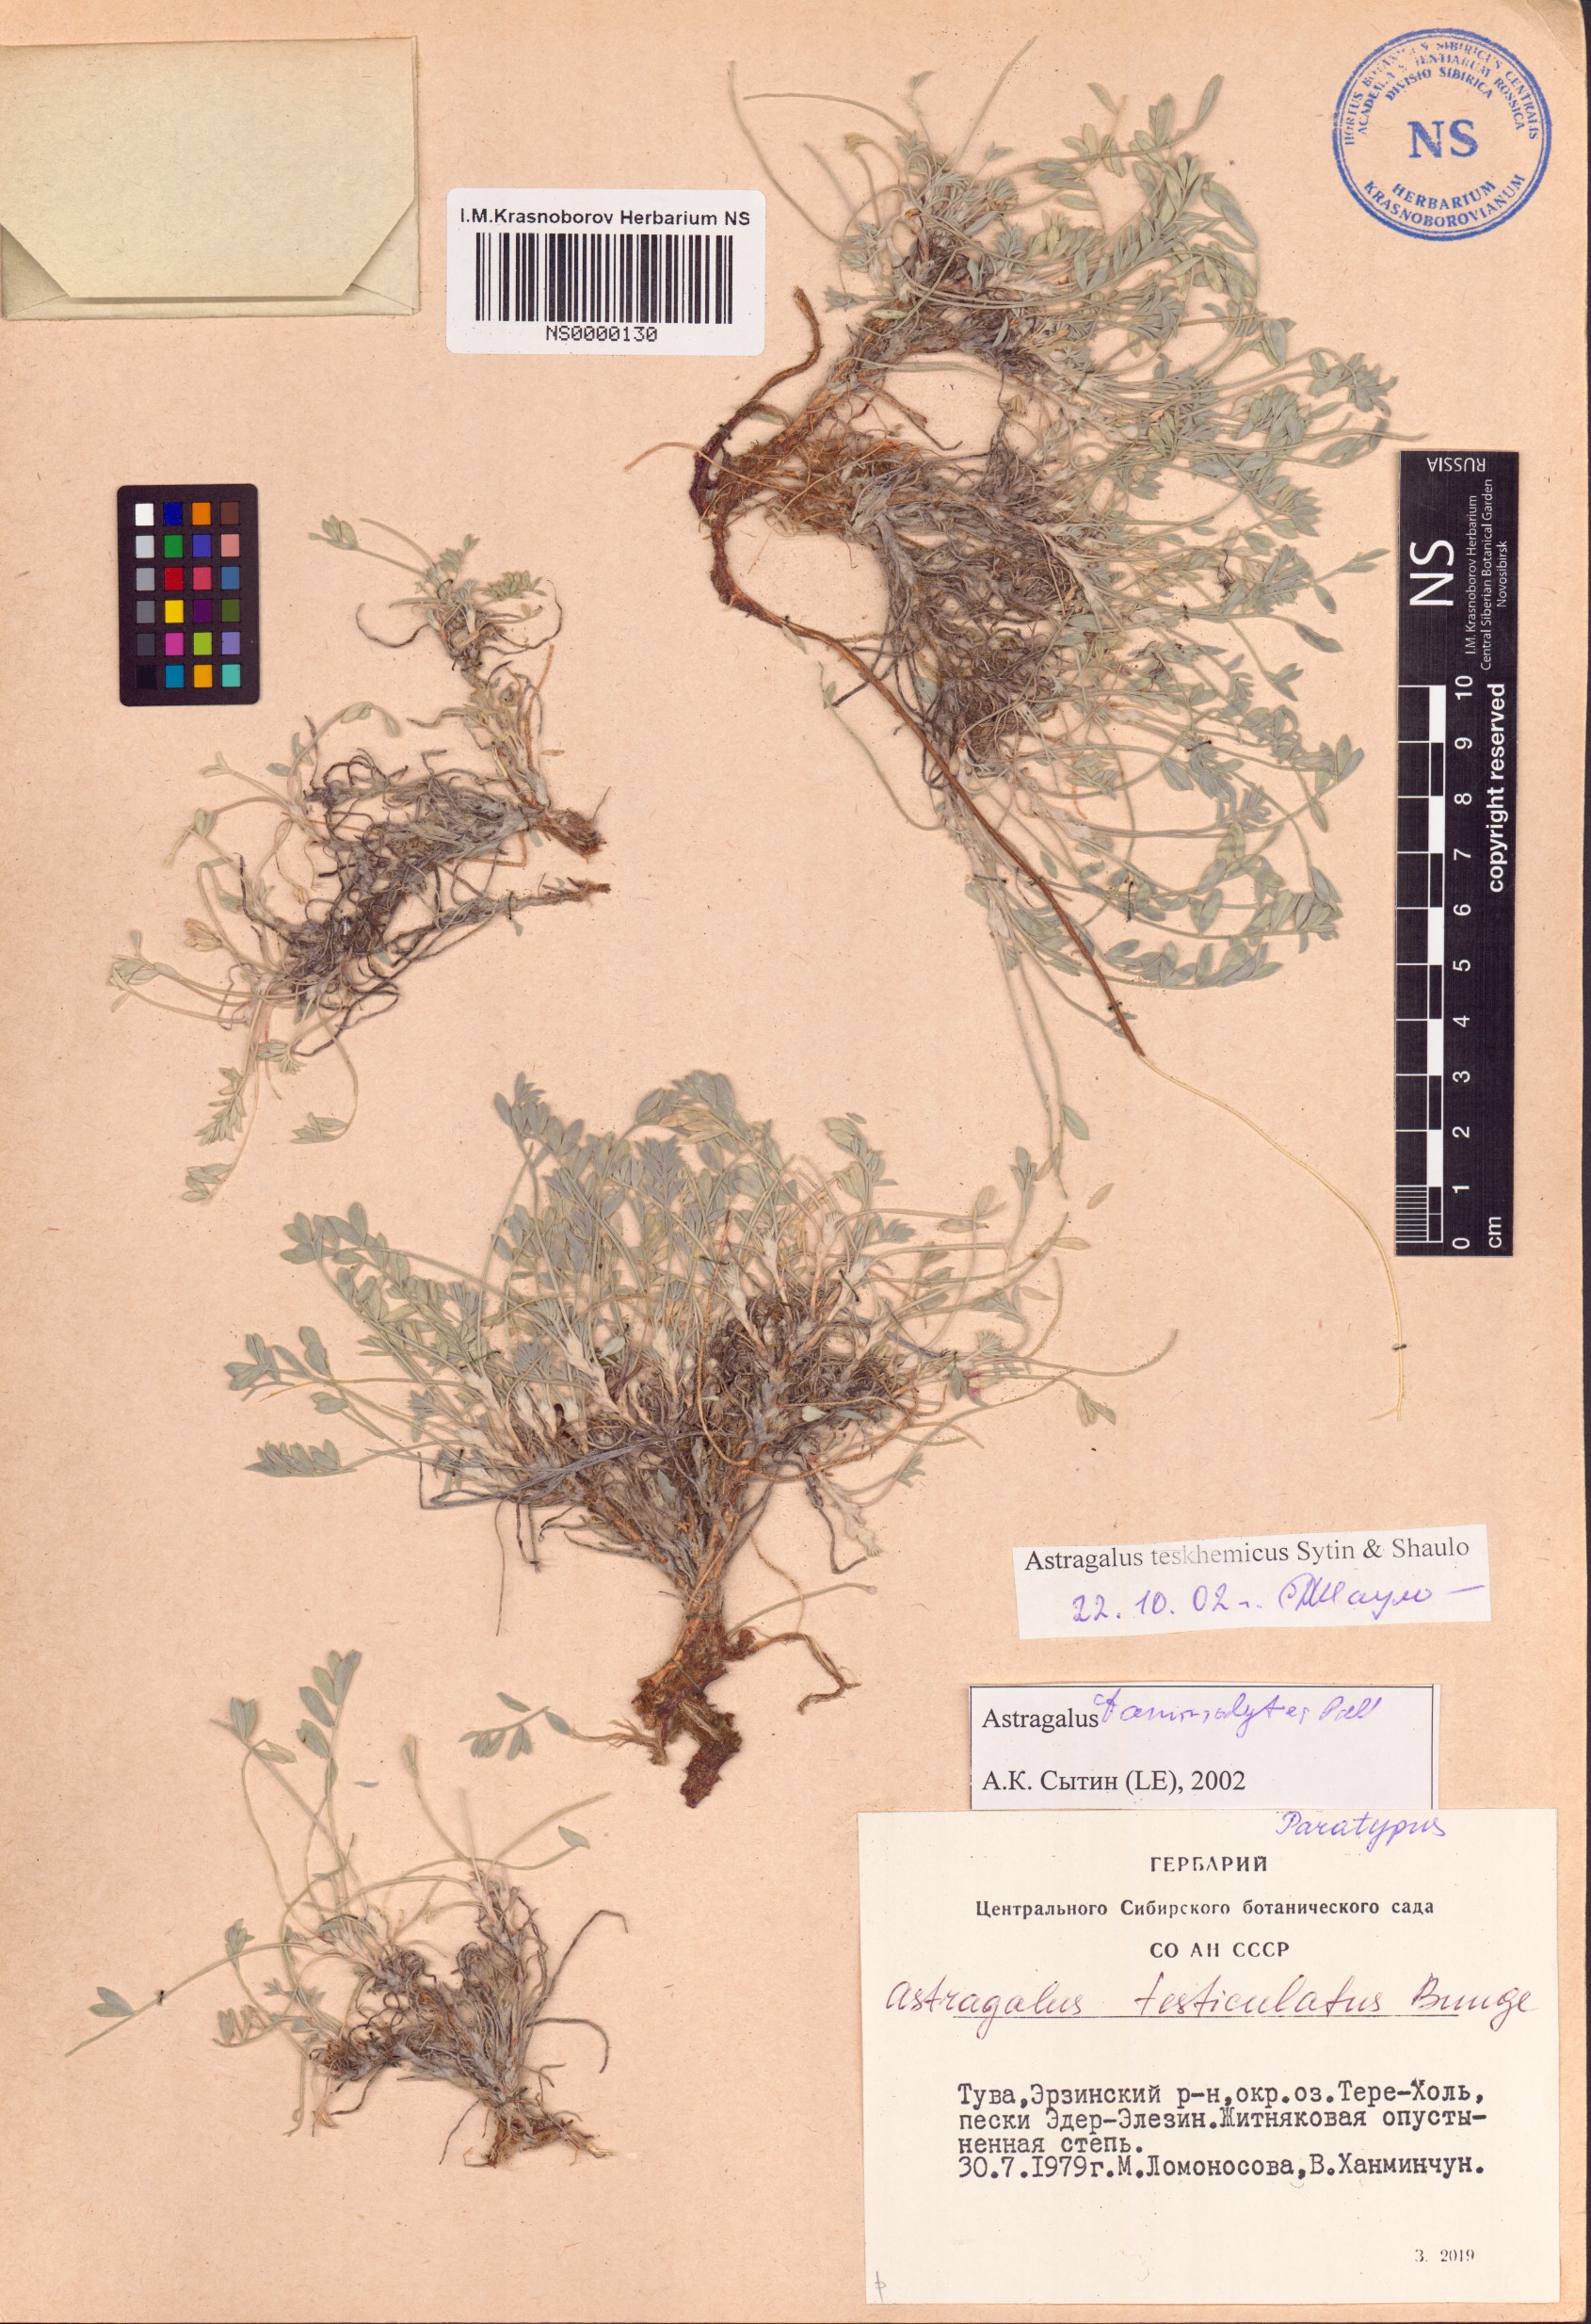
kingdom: Plantae
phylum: Tracheophyta
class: Magnoliopsida
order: Fabales
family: Fabaceae
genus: Astragalus
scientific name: Astragalus teskhemicus
